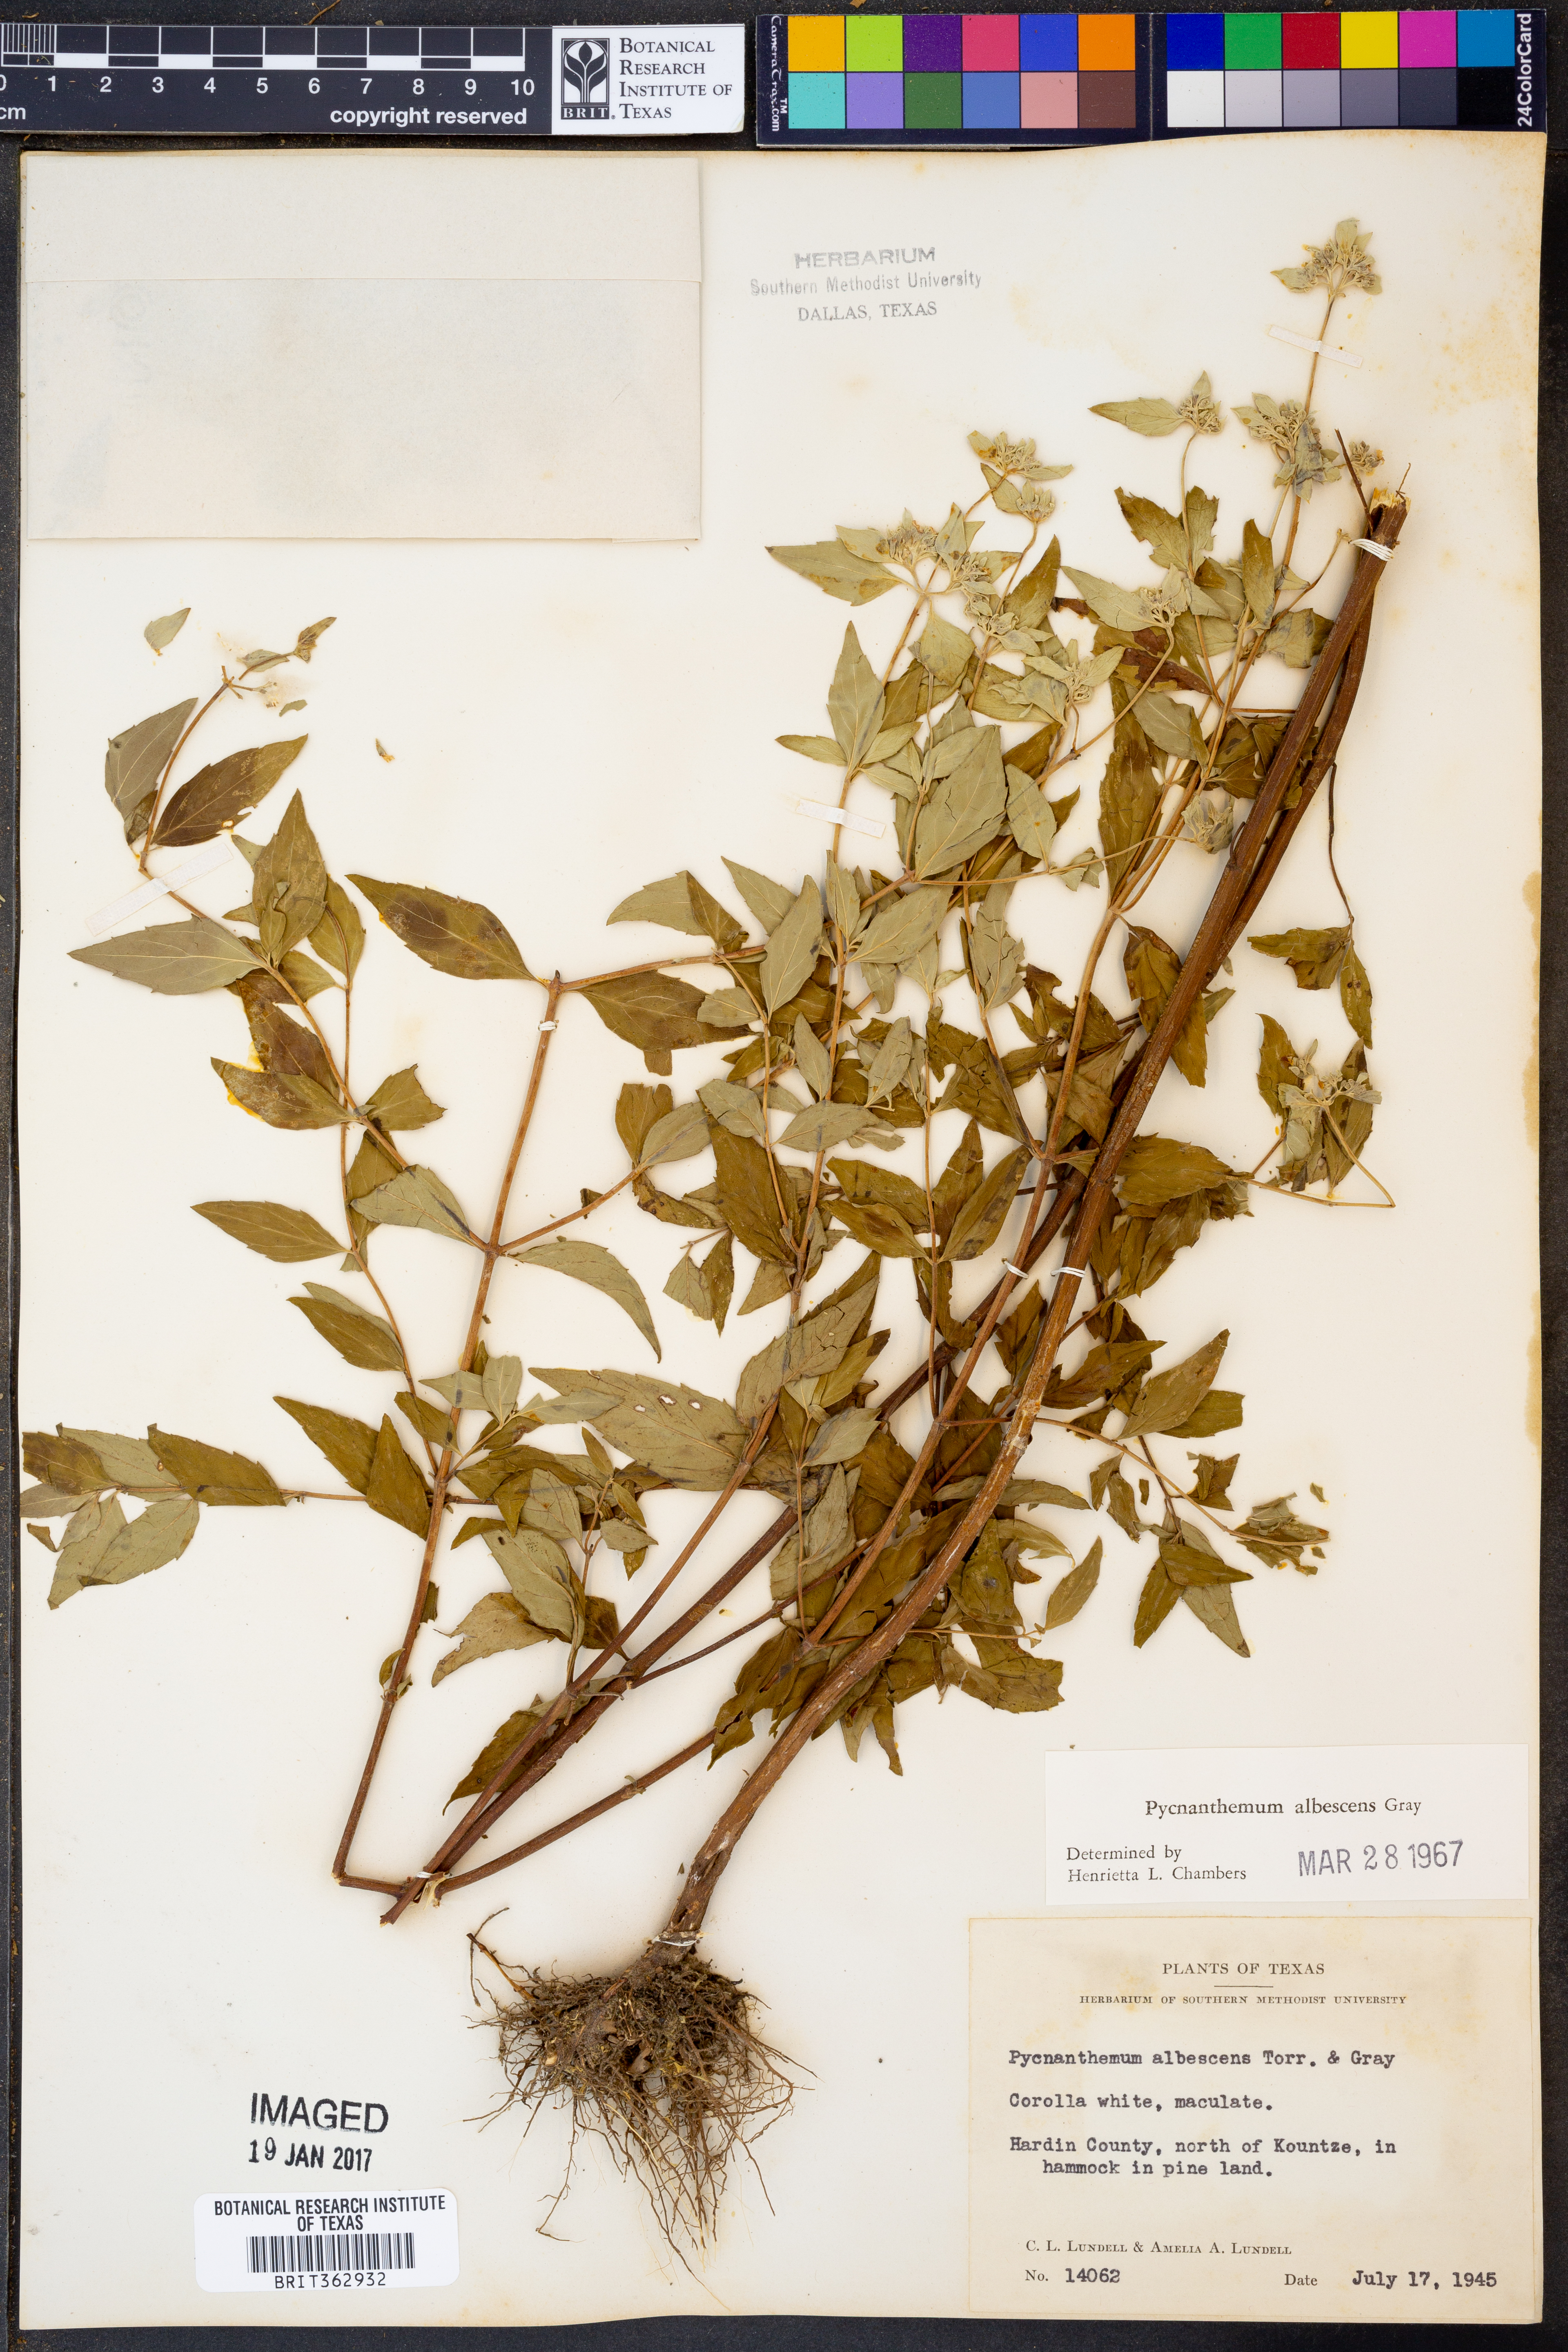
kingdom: Plantae
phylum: Tracheophyta
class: Magnoliopsida
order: Lamiales
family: Lamiaceae
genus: Pycnanthemum
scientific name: Pycnanthemum albescens
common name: White-leaf mountain-mint
